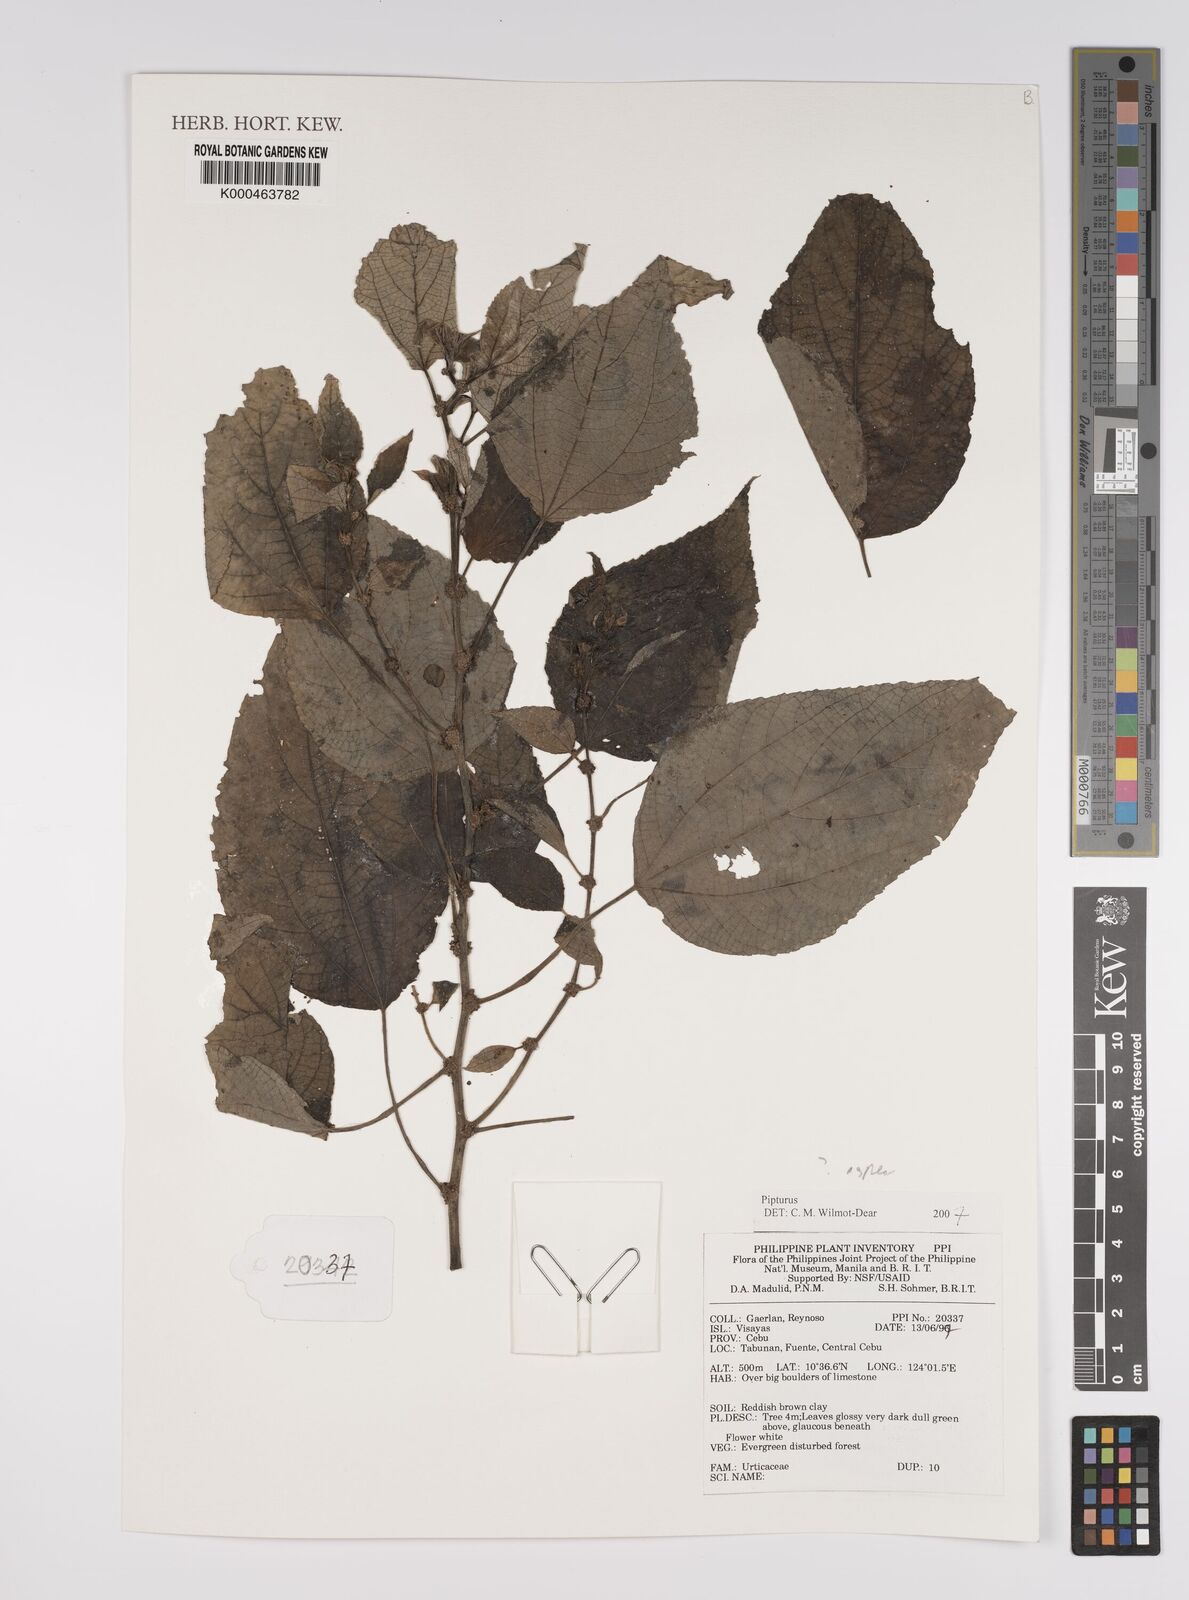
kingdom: Plantae
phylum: Tracheophyta
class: Magnoliopsida
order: Rosales
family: Urticaceae
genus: Pipturus
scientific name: Pipturus
